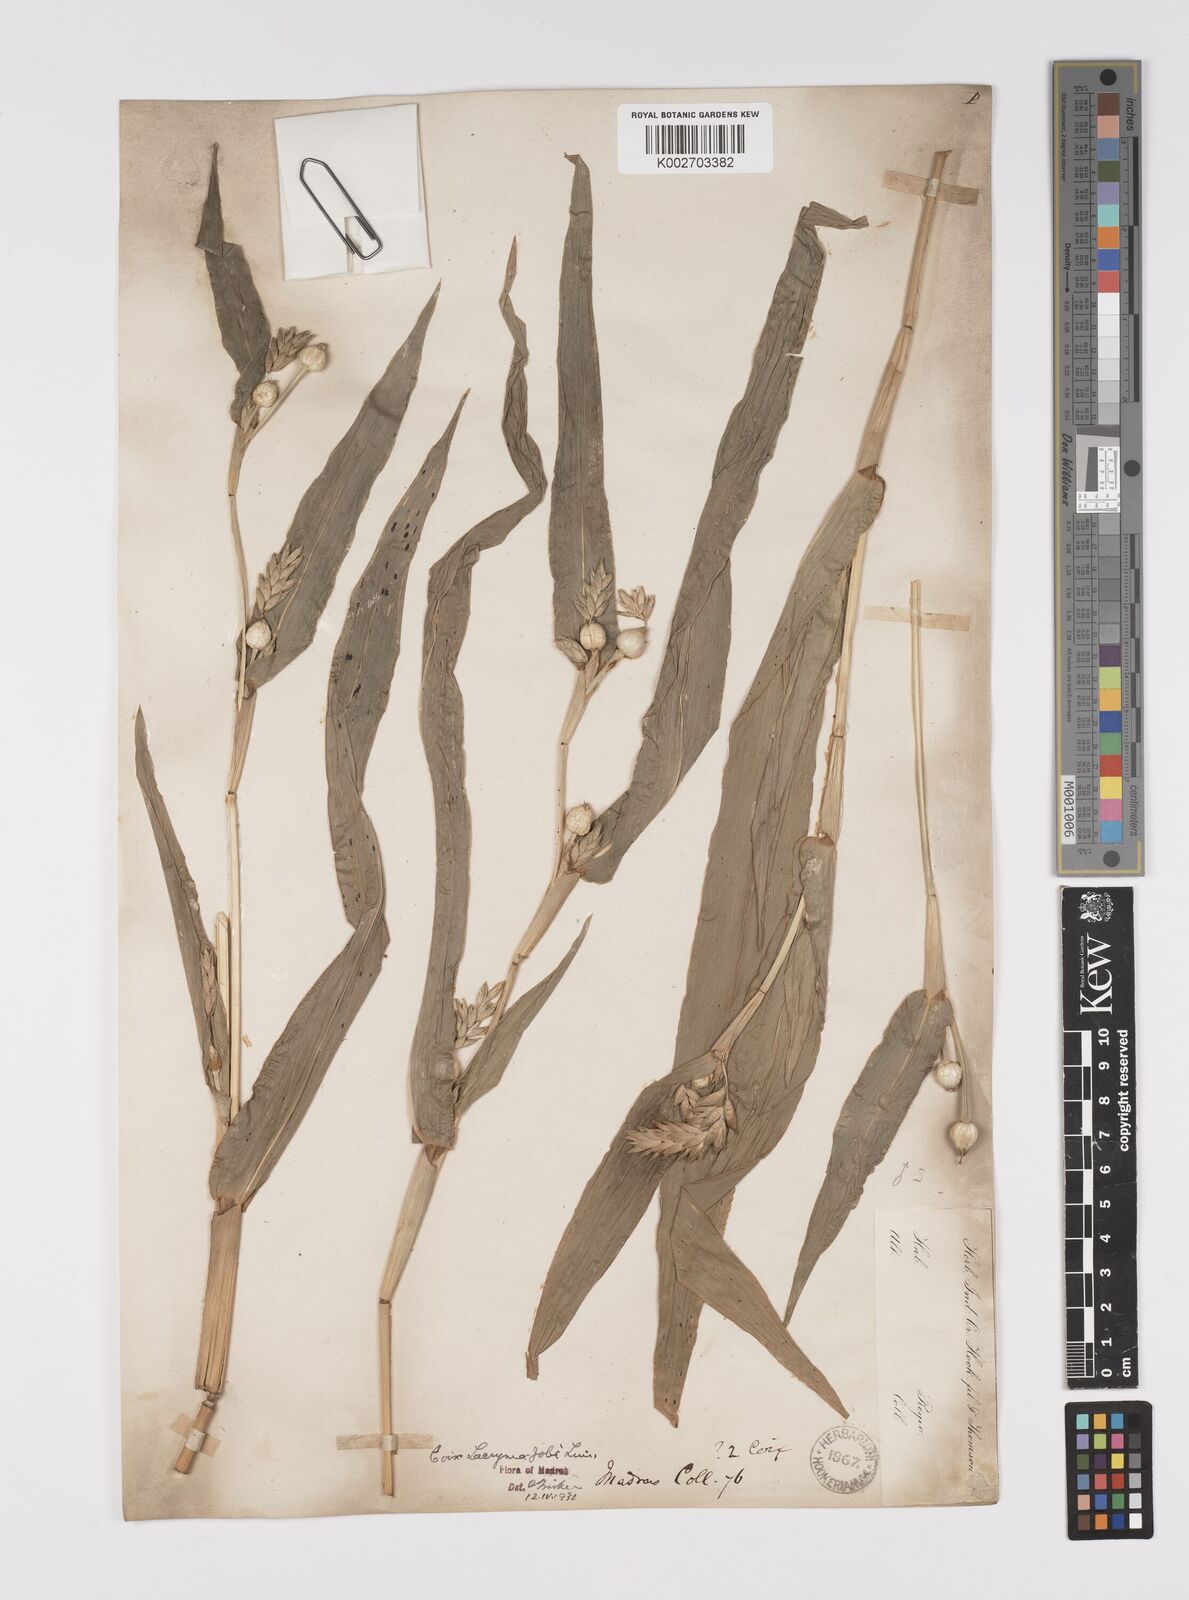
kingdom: Plantae
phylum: Tracheophyta
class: Liliopsida
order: Poales
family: Poaceae
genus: Coix
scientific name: Coix lacryma-jobi
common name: Job's tears
